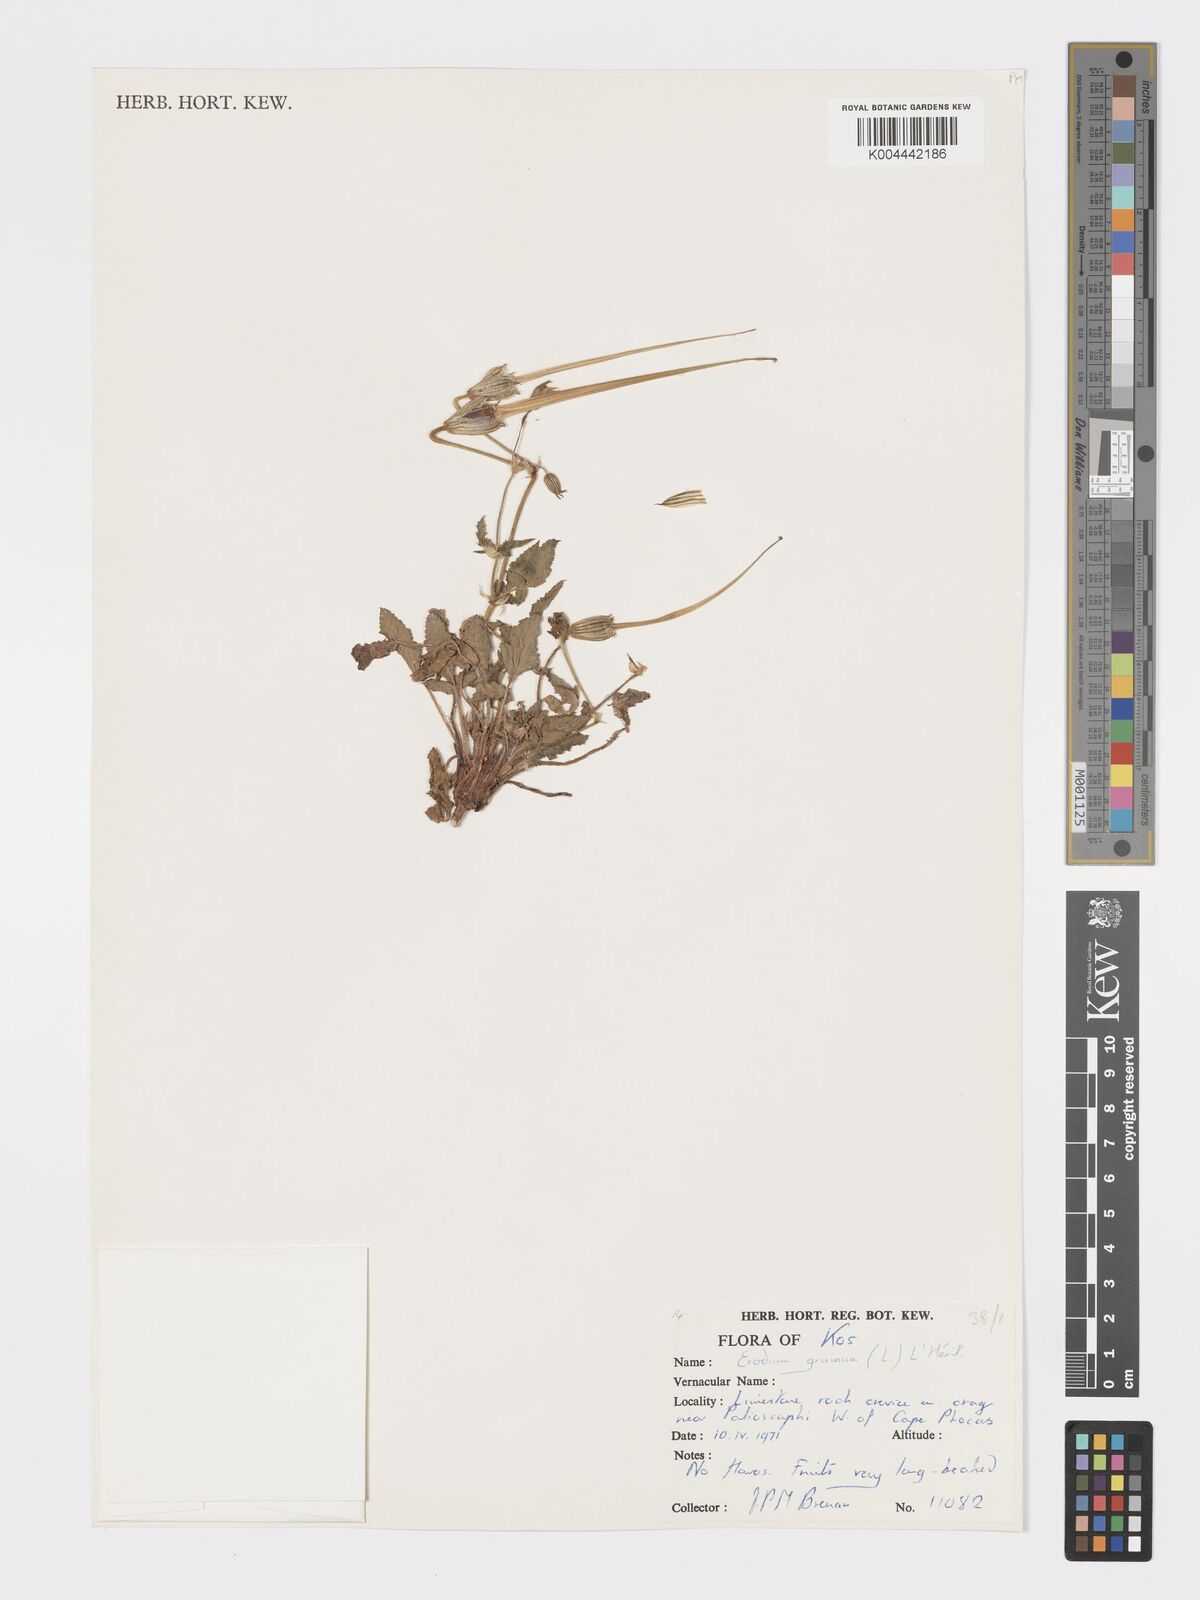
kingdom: Plantae
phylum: Tracheophyta
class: Magnoliopsida
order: Geraniales
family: Geraniaceae
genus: Erodium
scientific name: Erodium gruinum
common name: Iranian stork's bill
